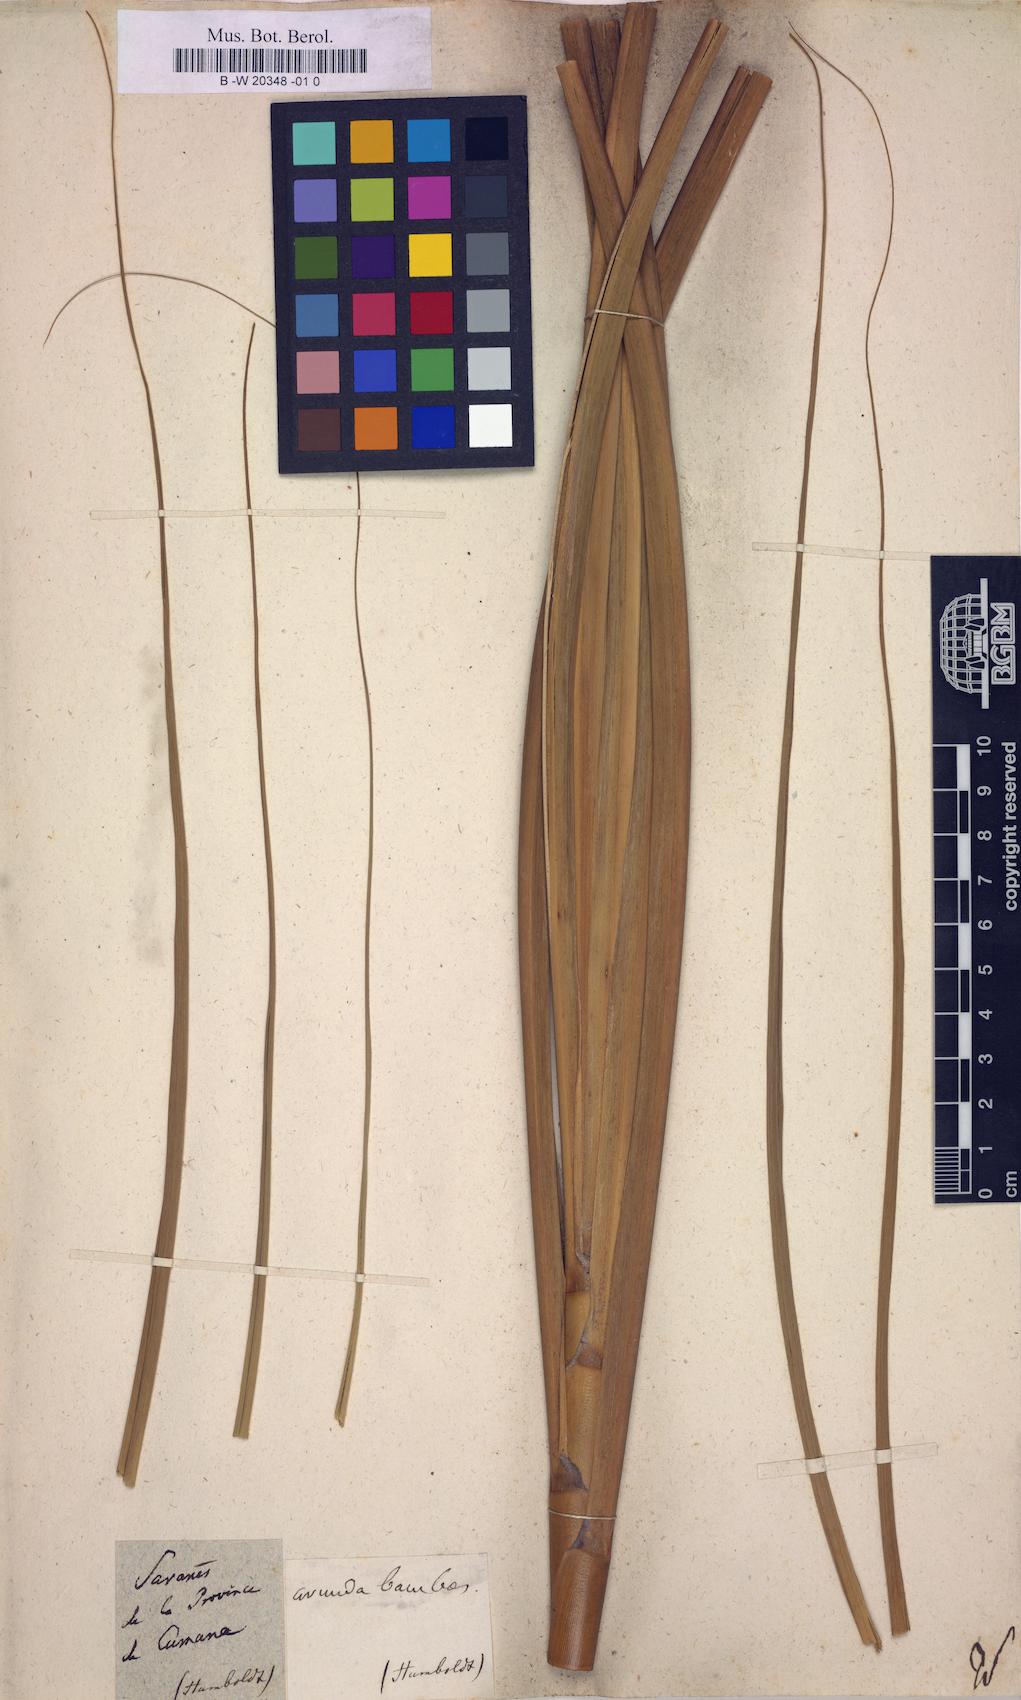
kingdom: Plantae
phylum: Tracheophyta
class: Liliopsida
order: Poales
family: Poaceae
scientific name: Poaceae
